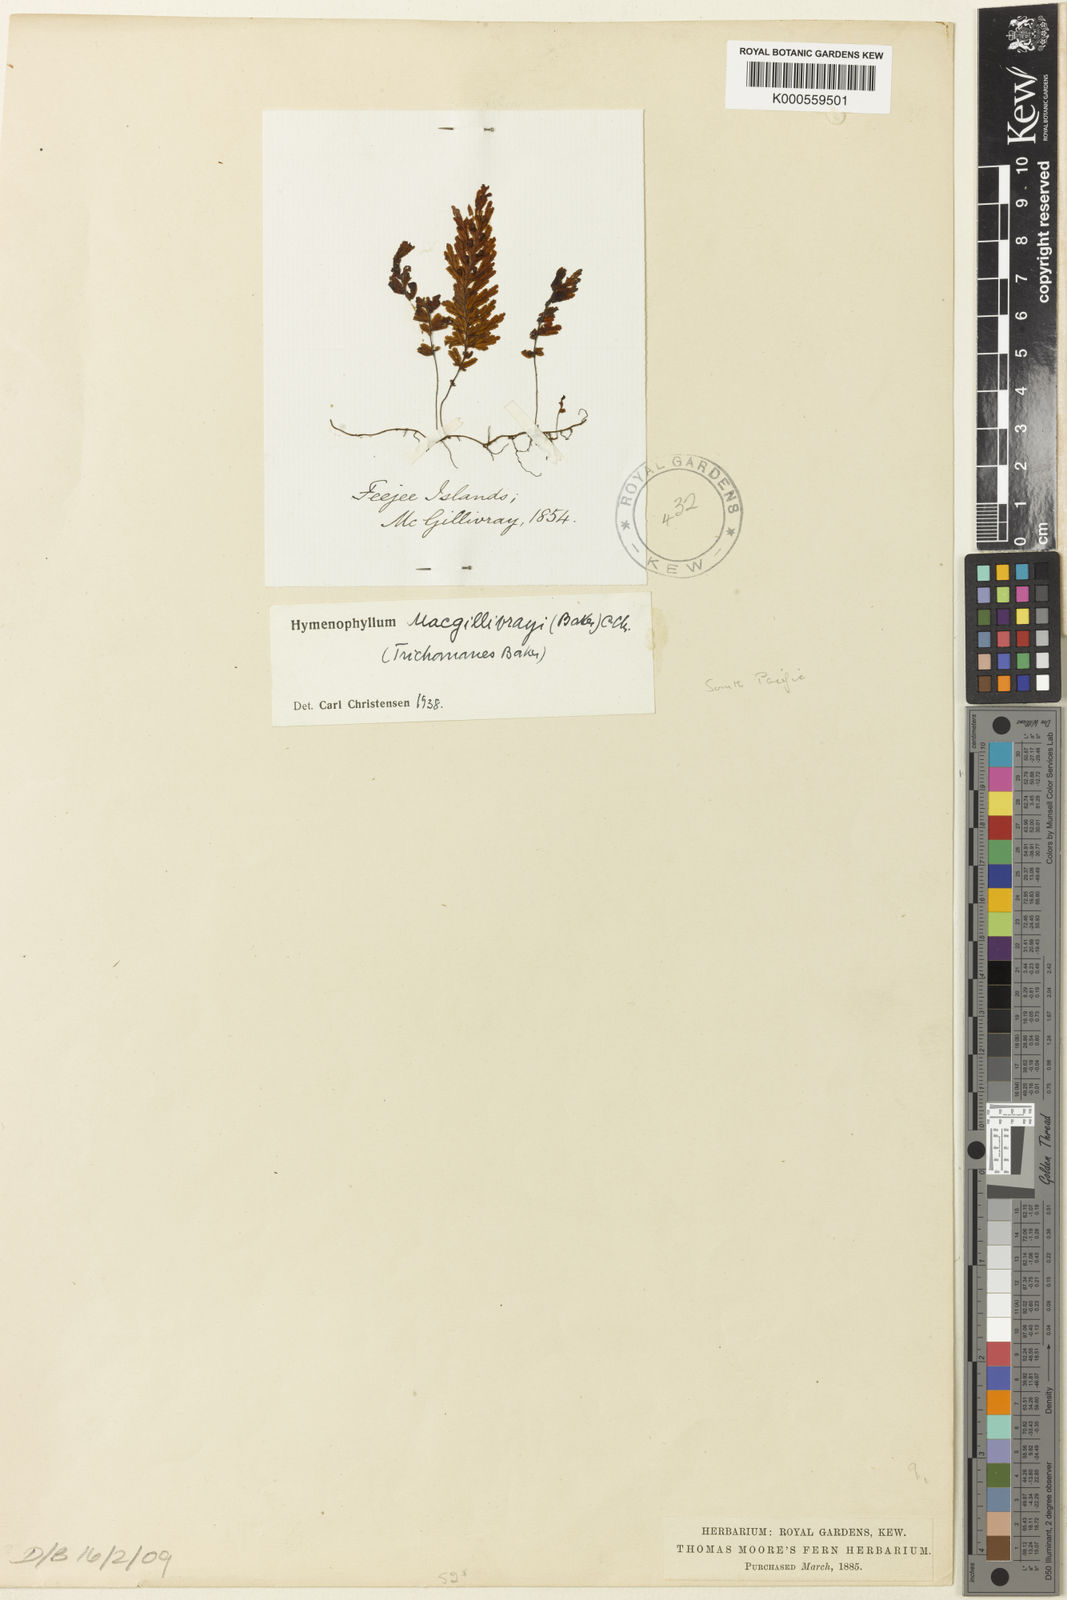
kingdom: Plantae
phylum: Tracheophyta
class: Polypodiopsida
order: Hymenophyllales
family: Hymenophyllaceae
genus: Hymenophyllum
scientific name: Hymenophyllum macgillivrayi
